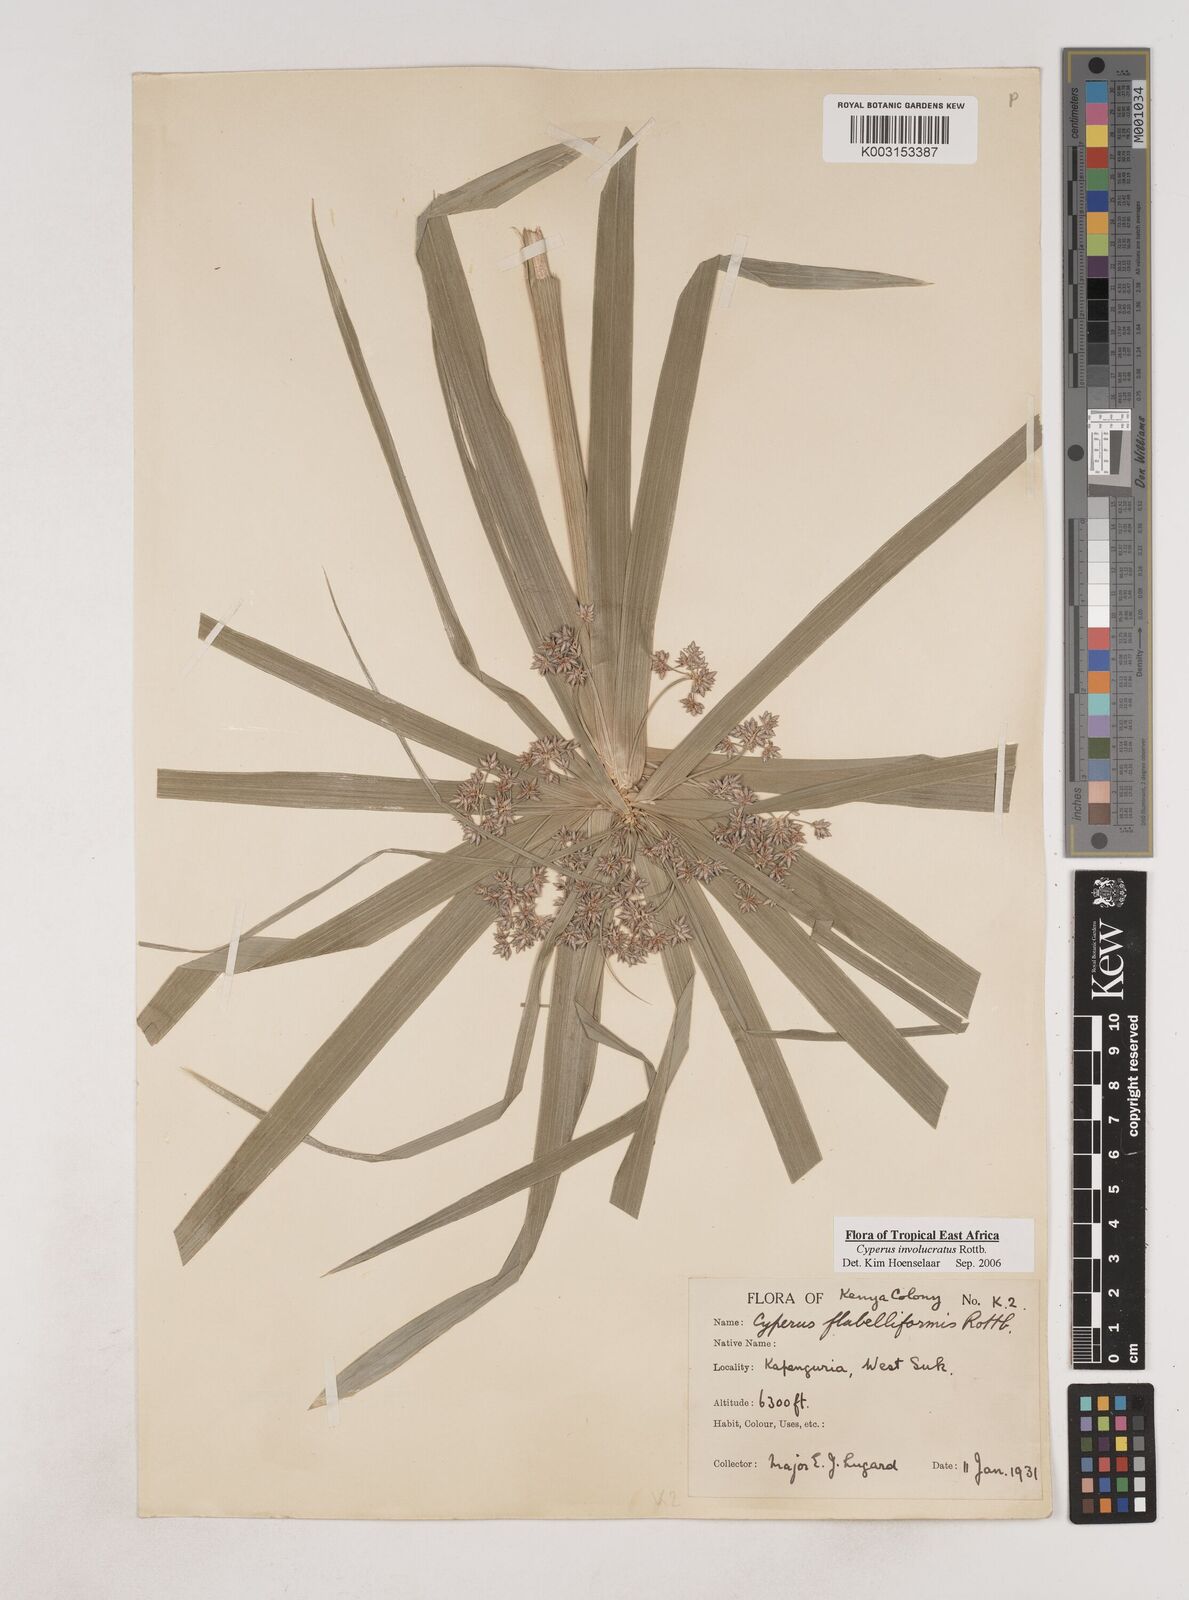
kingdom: Plantae
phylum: Tracheophyta
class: Liliopsida
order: Poales
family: Cyperaceae
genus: Cyperus
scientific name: Cyperus alternifolius
